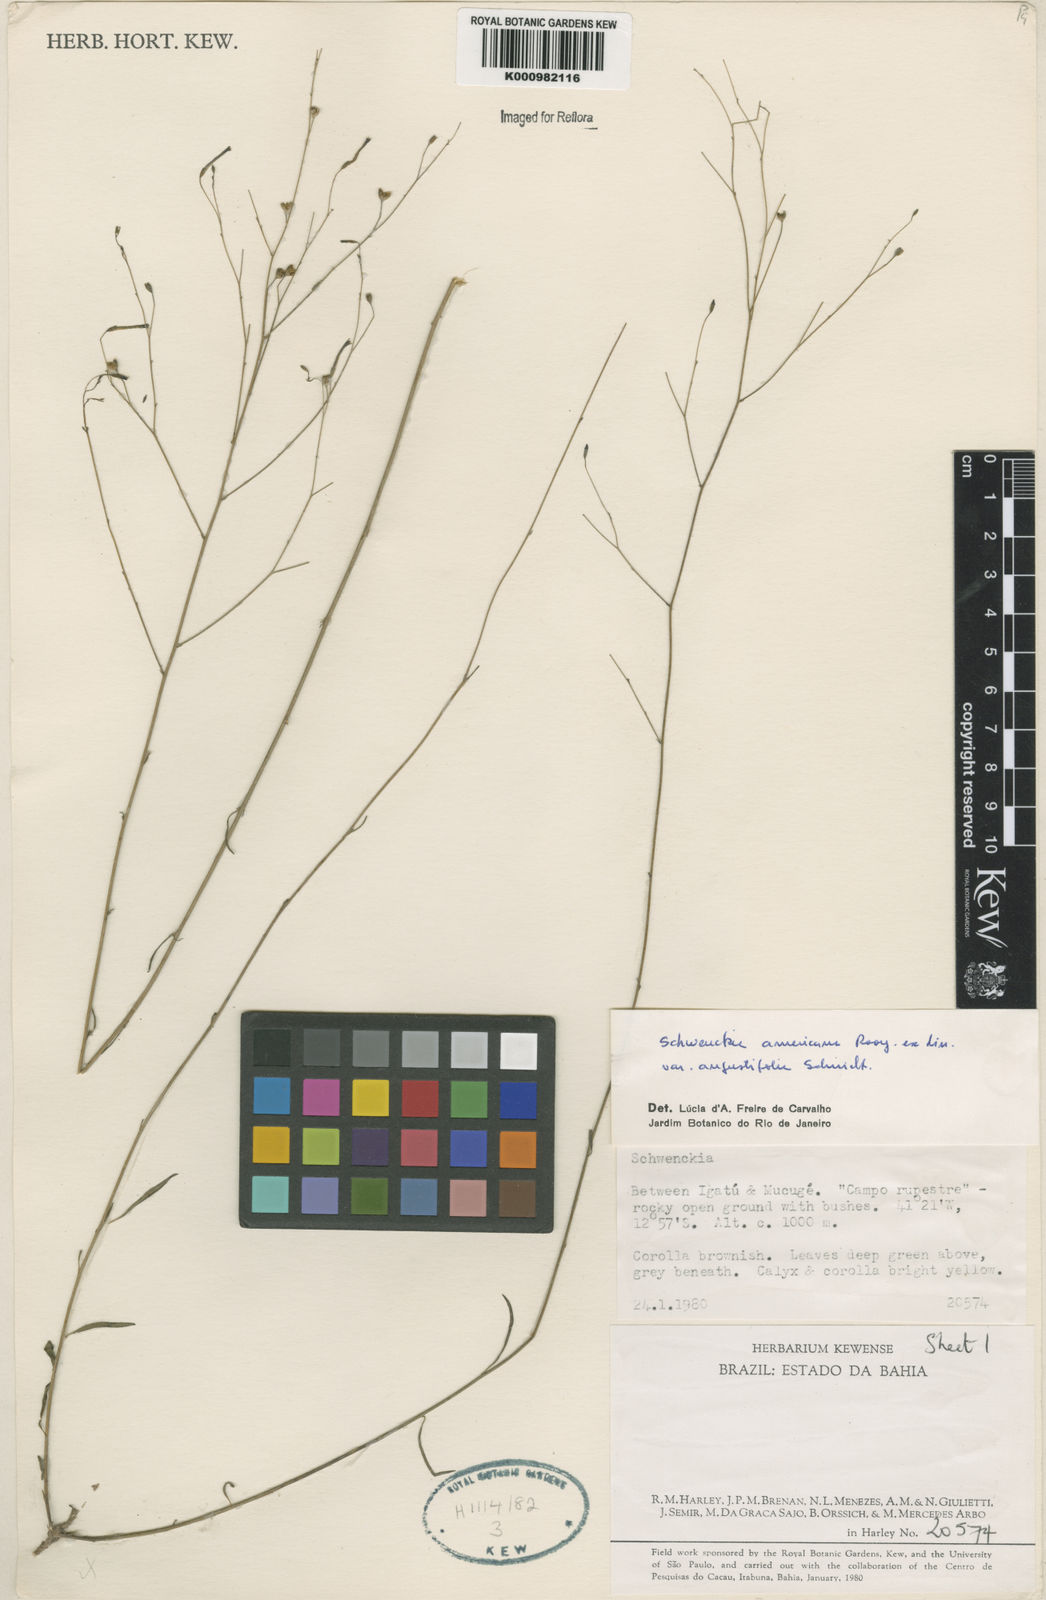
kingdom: Plantae
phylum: Tracheophyta
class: Magnoliopsida
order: Solanales
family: Solanaceae
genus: Schwenckia
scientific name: Schwenckia americana
